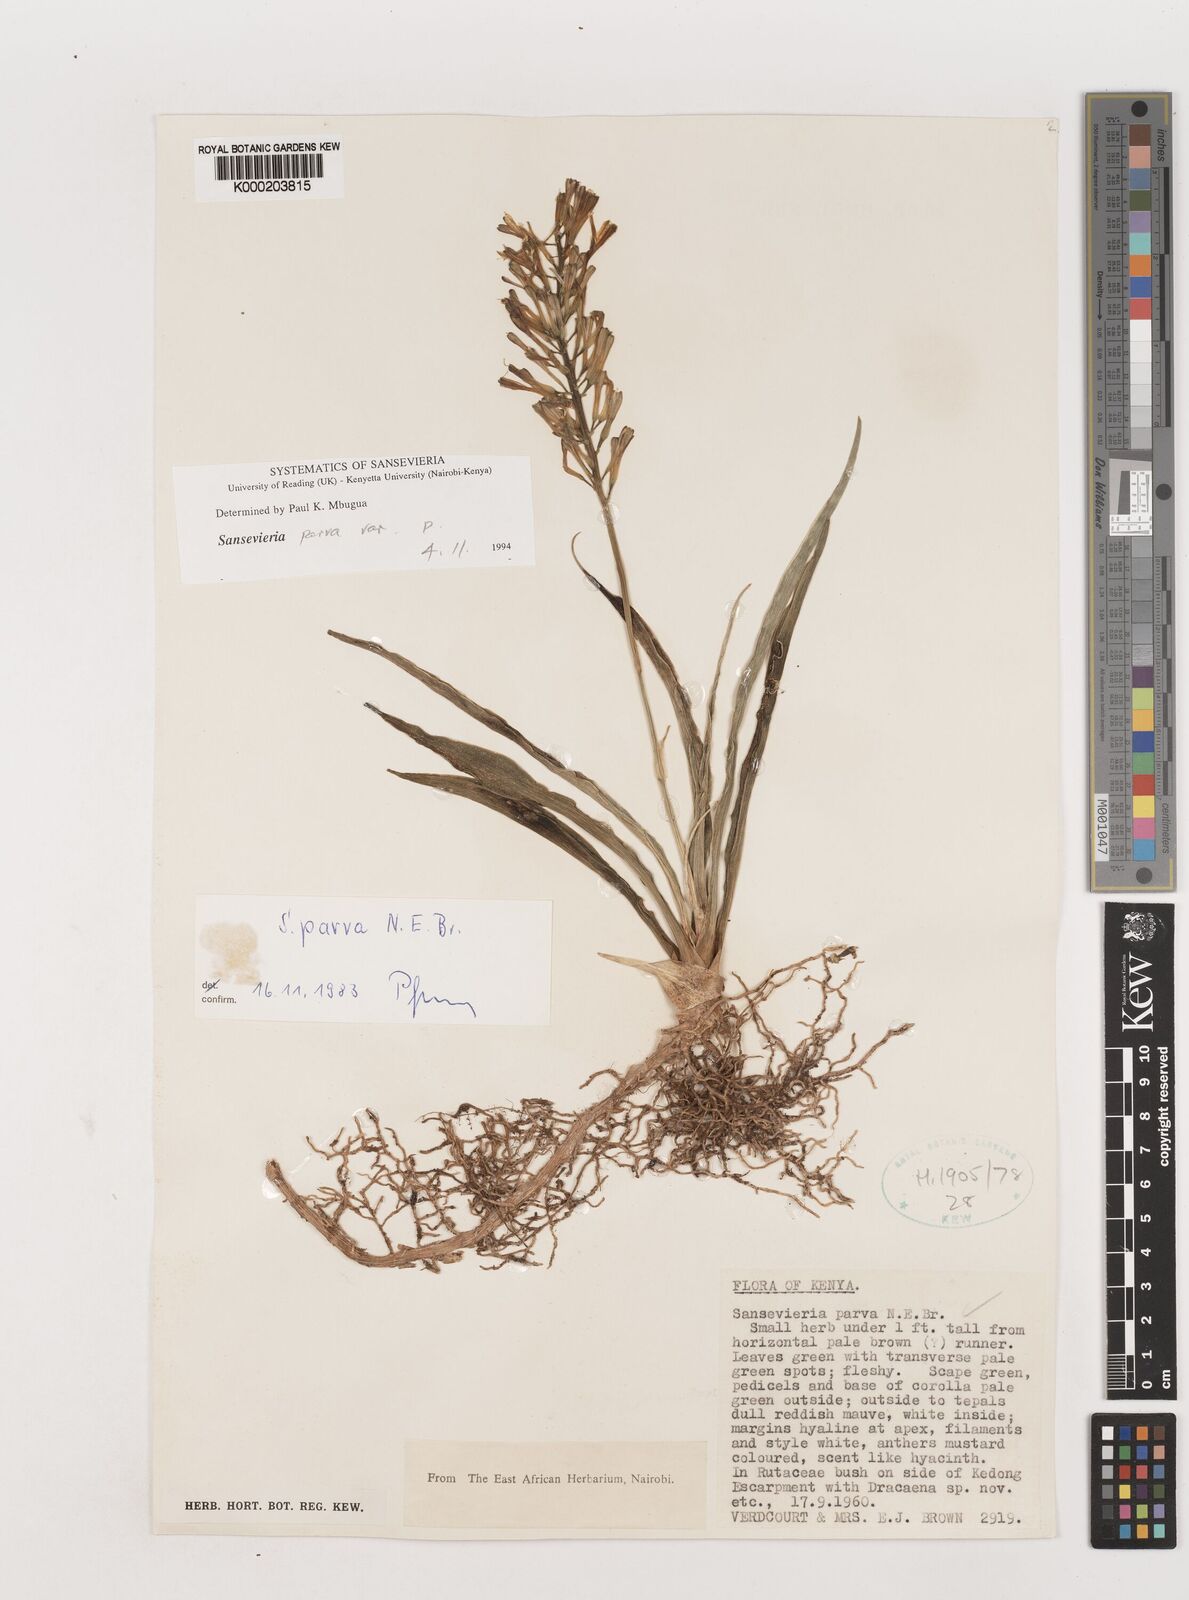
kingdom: Plantae
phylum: Tracheophyta
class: Liliopsida
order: Asparagales
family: Asparagaceae
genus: Dracaena
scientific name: Dracaena parva
